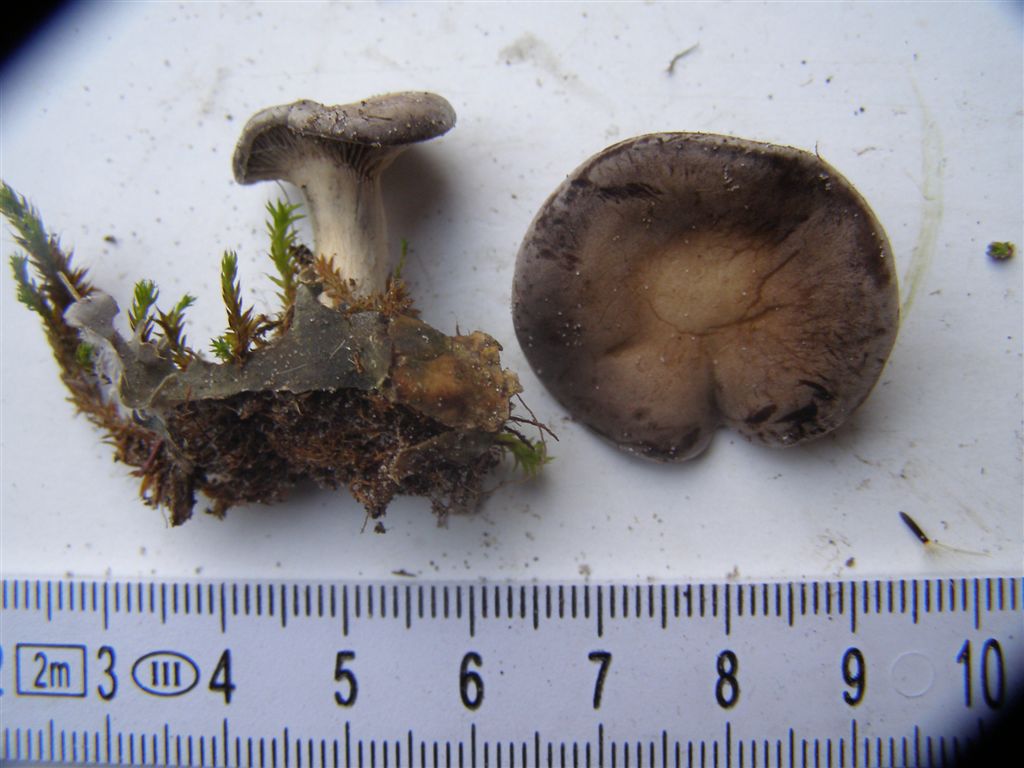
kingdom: Fungi
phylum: Basidiomycota
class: Agaricomycetes
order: Agaricales
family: Tricholomataceae
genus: Lulesia
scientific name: Lulesia
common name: sortnende troldhat
